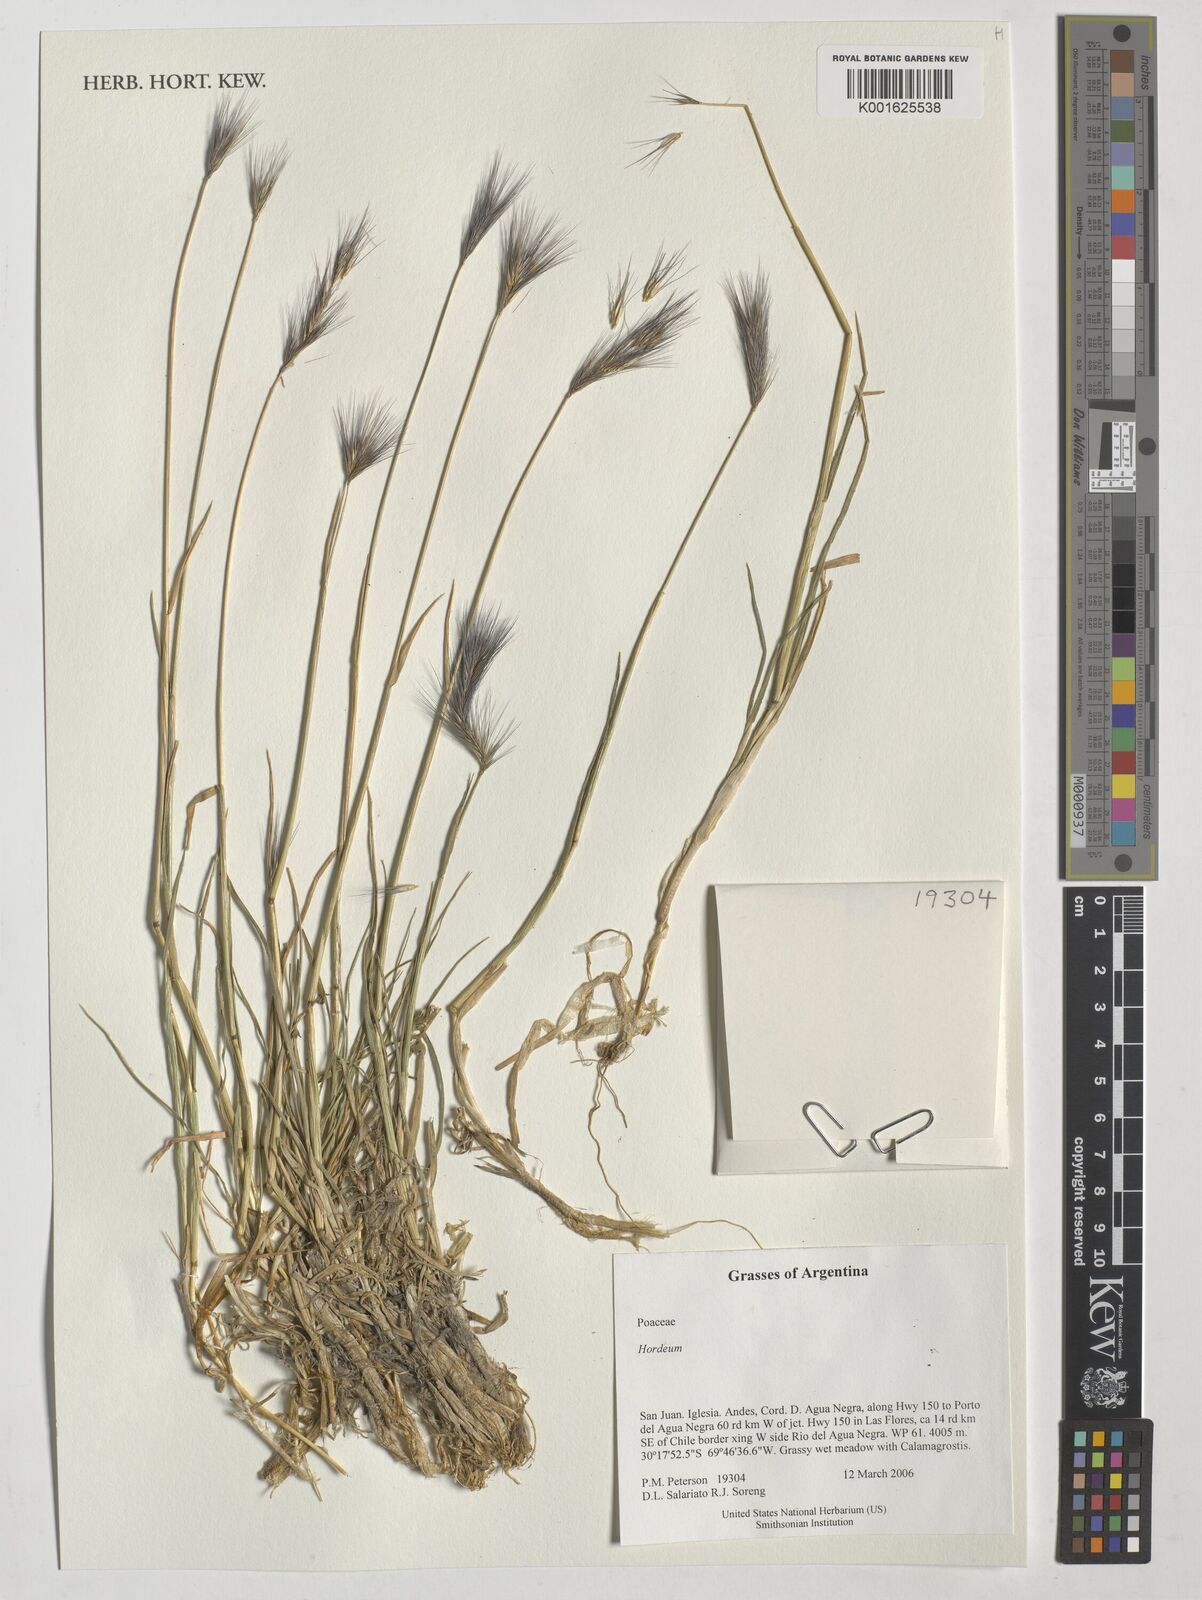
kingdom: Plantae
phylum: Tracheophyta
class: Liliopsida
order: Poales
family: Poaceae
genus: Hordeum
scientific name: Hordeum
